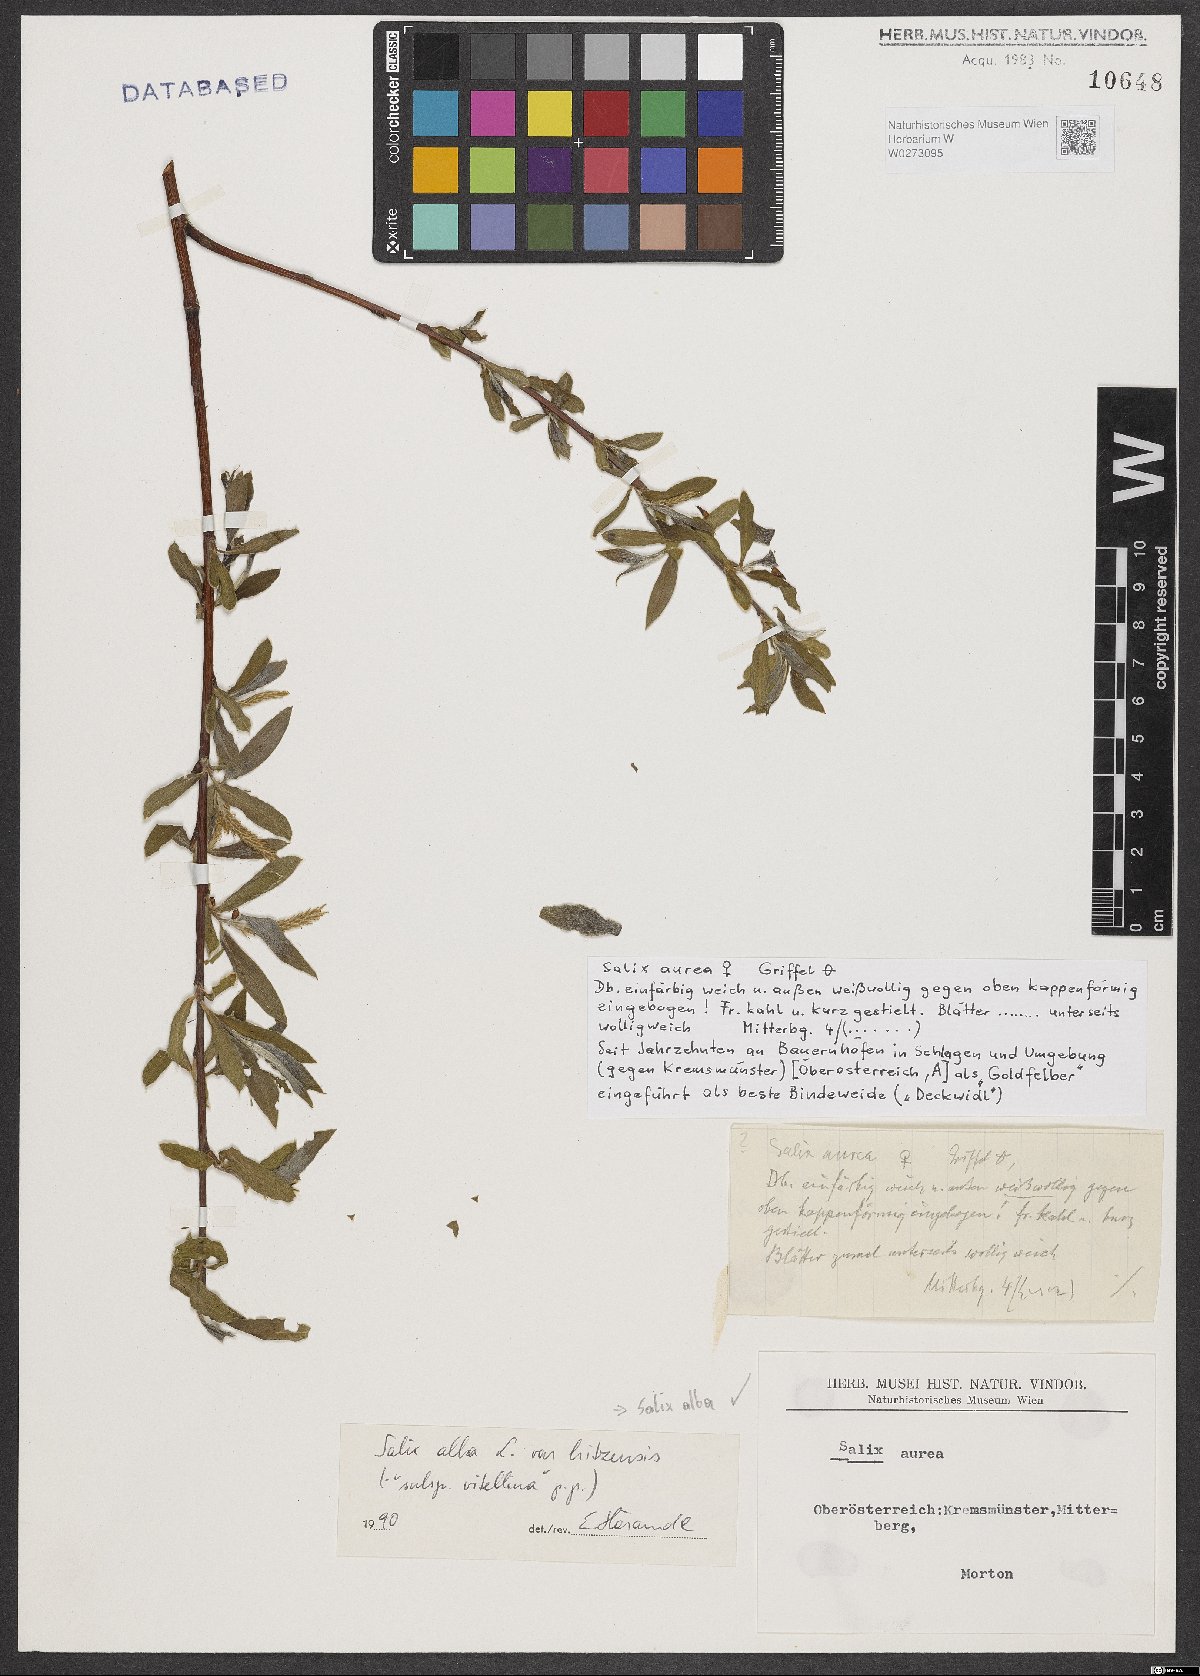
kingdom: Plantae
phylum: Tracheophyta
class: Magnoliopsida
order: Malpighiales
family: Salicaceae
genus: Salix
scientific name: Salix alba
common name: White willow
